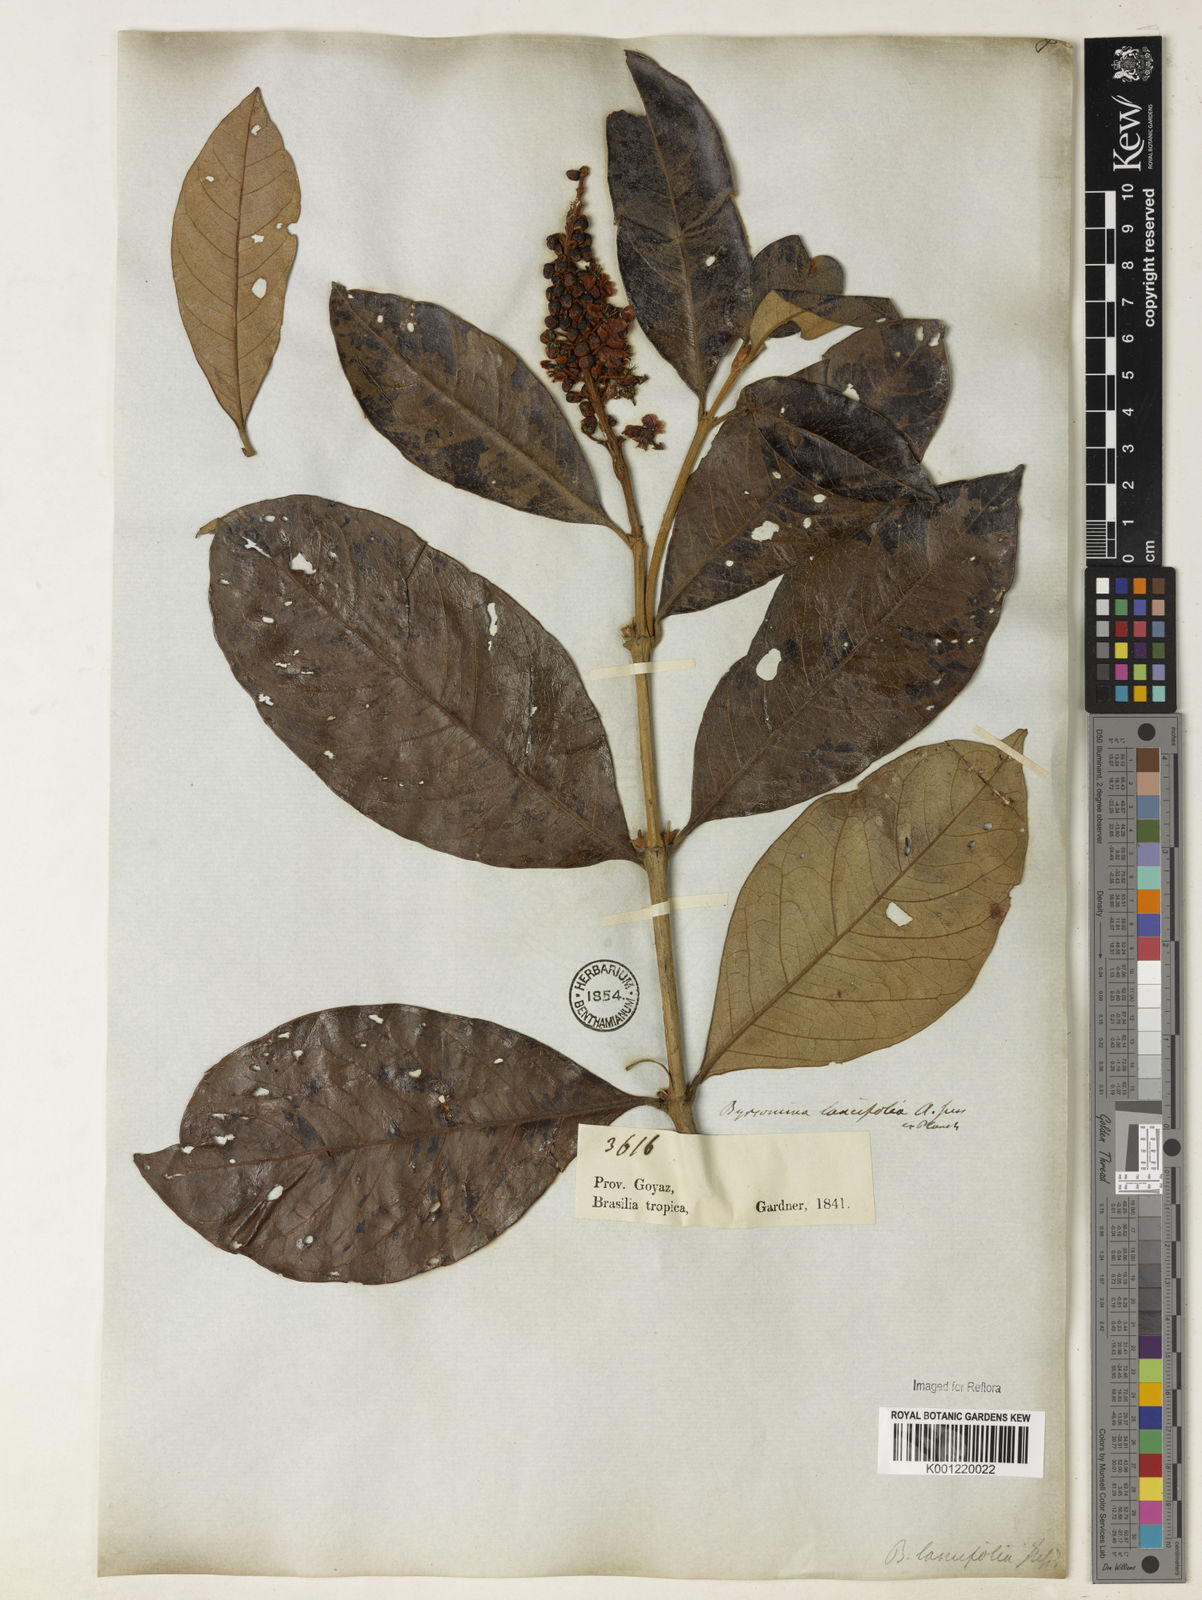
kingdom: Plantae
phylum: Tracheophyta
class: Magnoliopsida
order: Malpighiales
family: Malpighiaceae
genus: Byrsonima
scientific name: Byrsonima lancifolia
